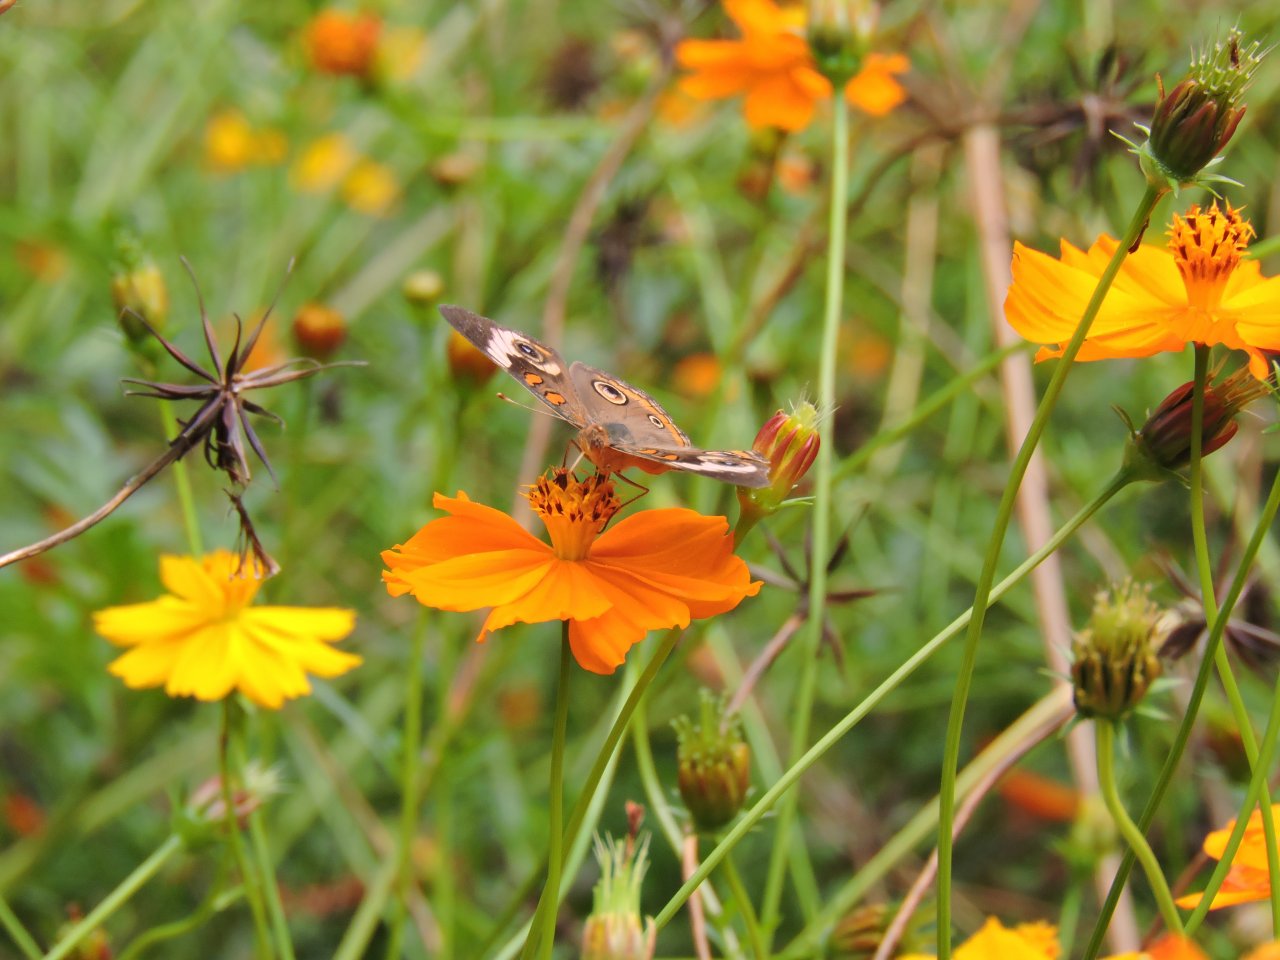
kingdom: Animalia
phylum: Arthropoda
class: Insecta
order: Lepidoptera
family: Nymphalidae
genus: Junonia
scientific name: Junonia coenia
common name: Common Buckeye
